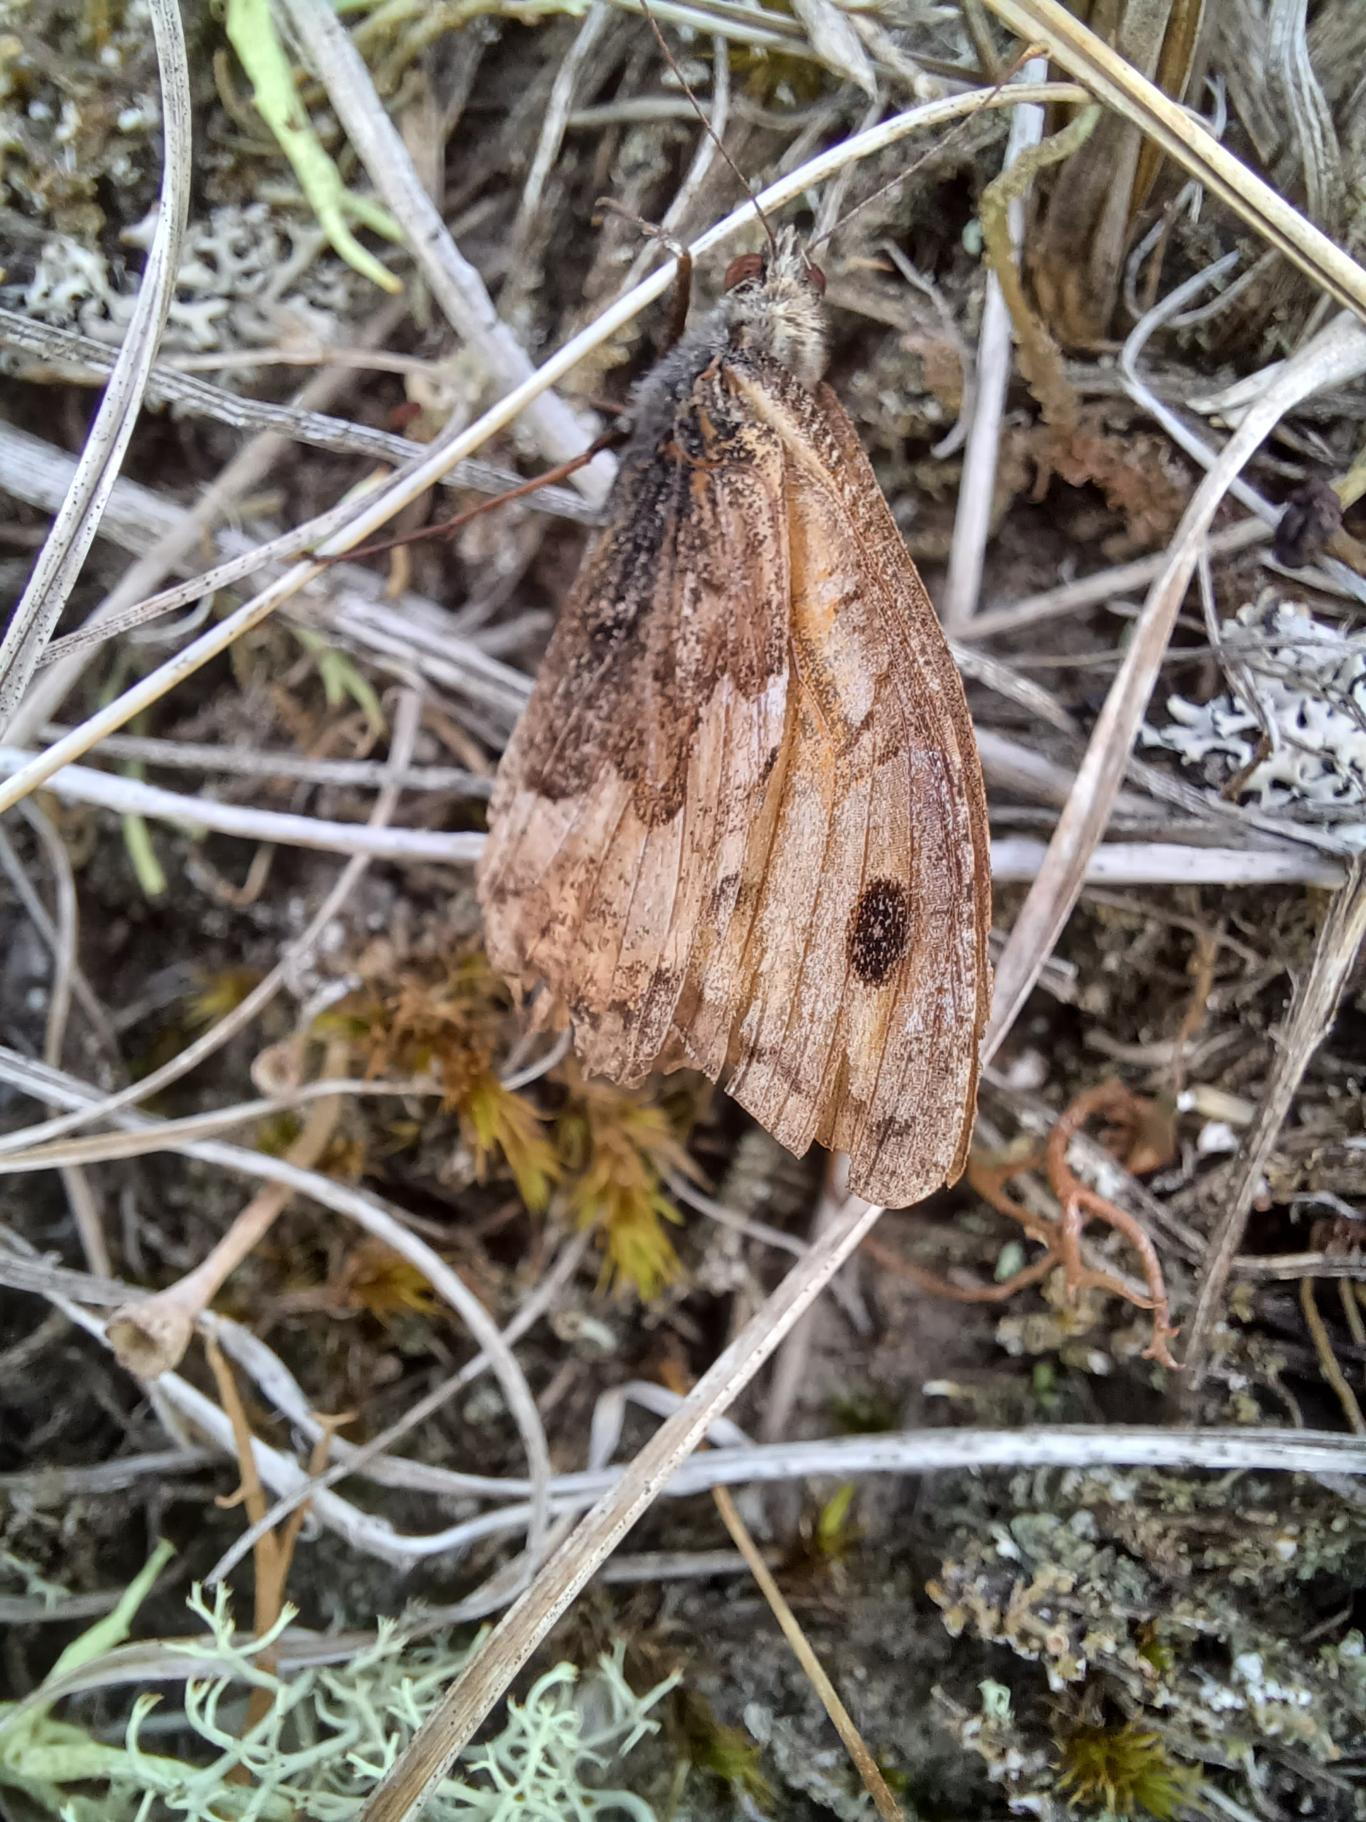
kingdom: Animalia
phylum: Arthropoda
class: Insecta
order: Lepidoptera
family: Nymphalidae
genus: Hipparchia
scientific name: Hipparchia semele
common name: Sandrandøje
